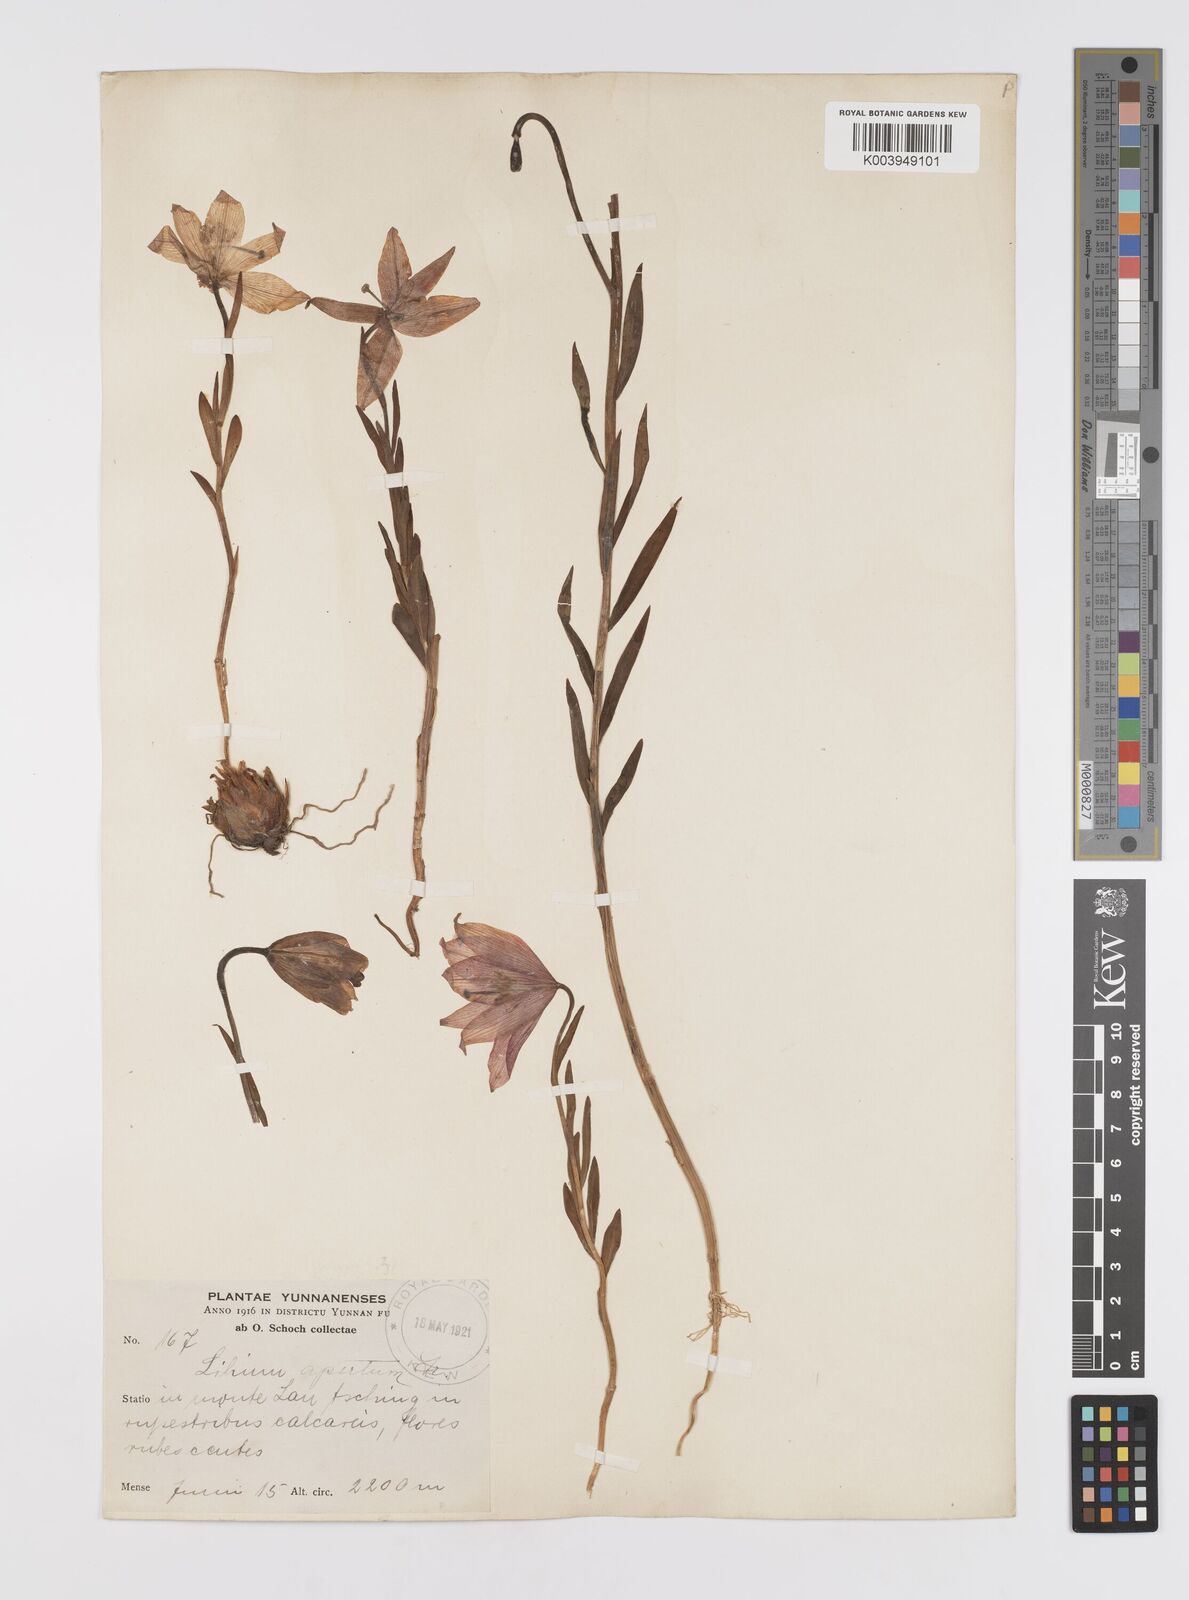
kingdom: Plantae
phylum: Tracheophyta
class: Liliopsida
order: Liliales
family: Liliaceae
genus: Lilium
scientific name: Lilium amoenum
